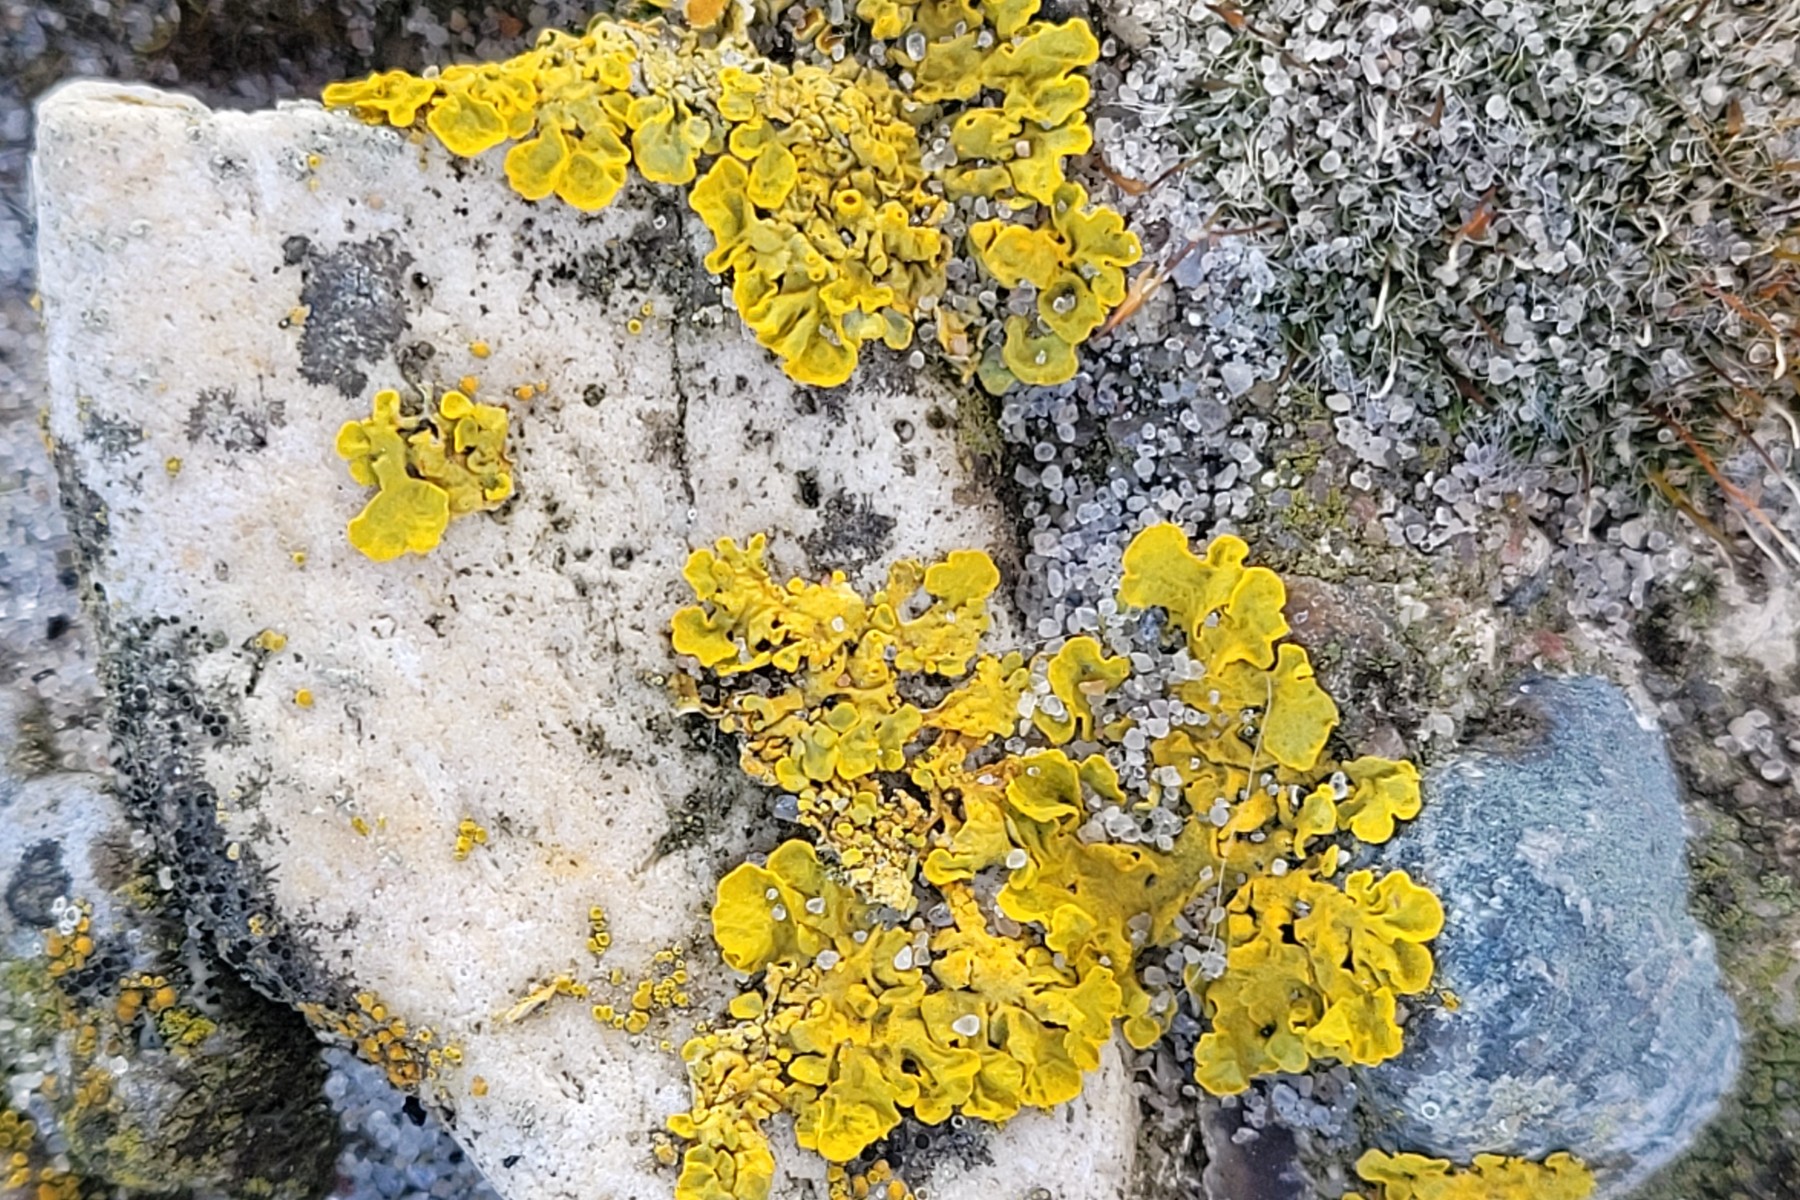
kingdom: Fungi
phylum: Ascomycota
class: Lecanoromycetes
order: Teloschistales
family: Teloschistaceae
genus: Xanthoria
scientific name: Xanthoria parietina
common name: almindelig væggelav
